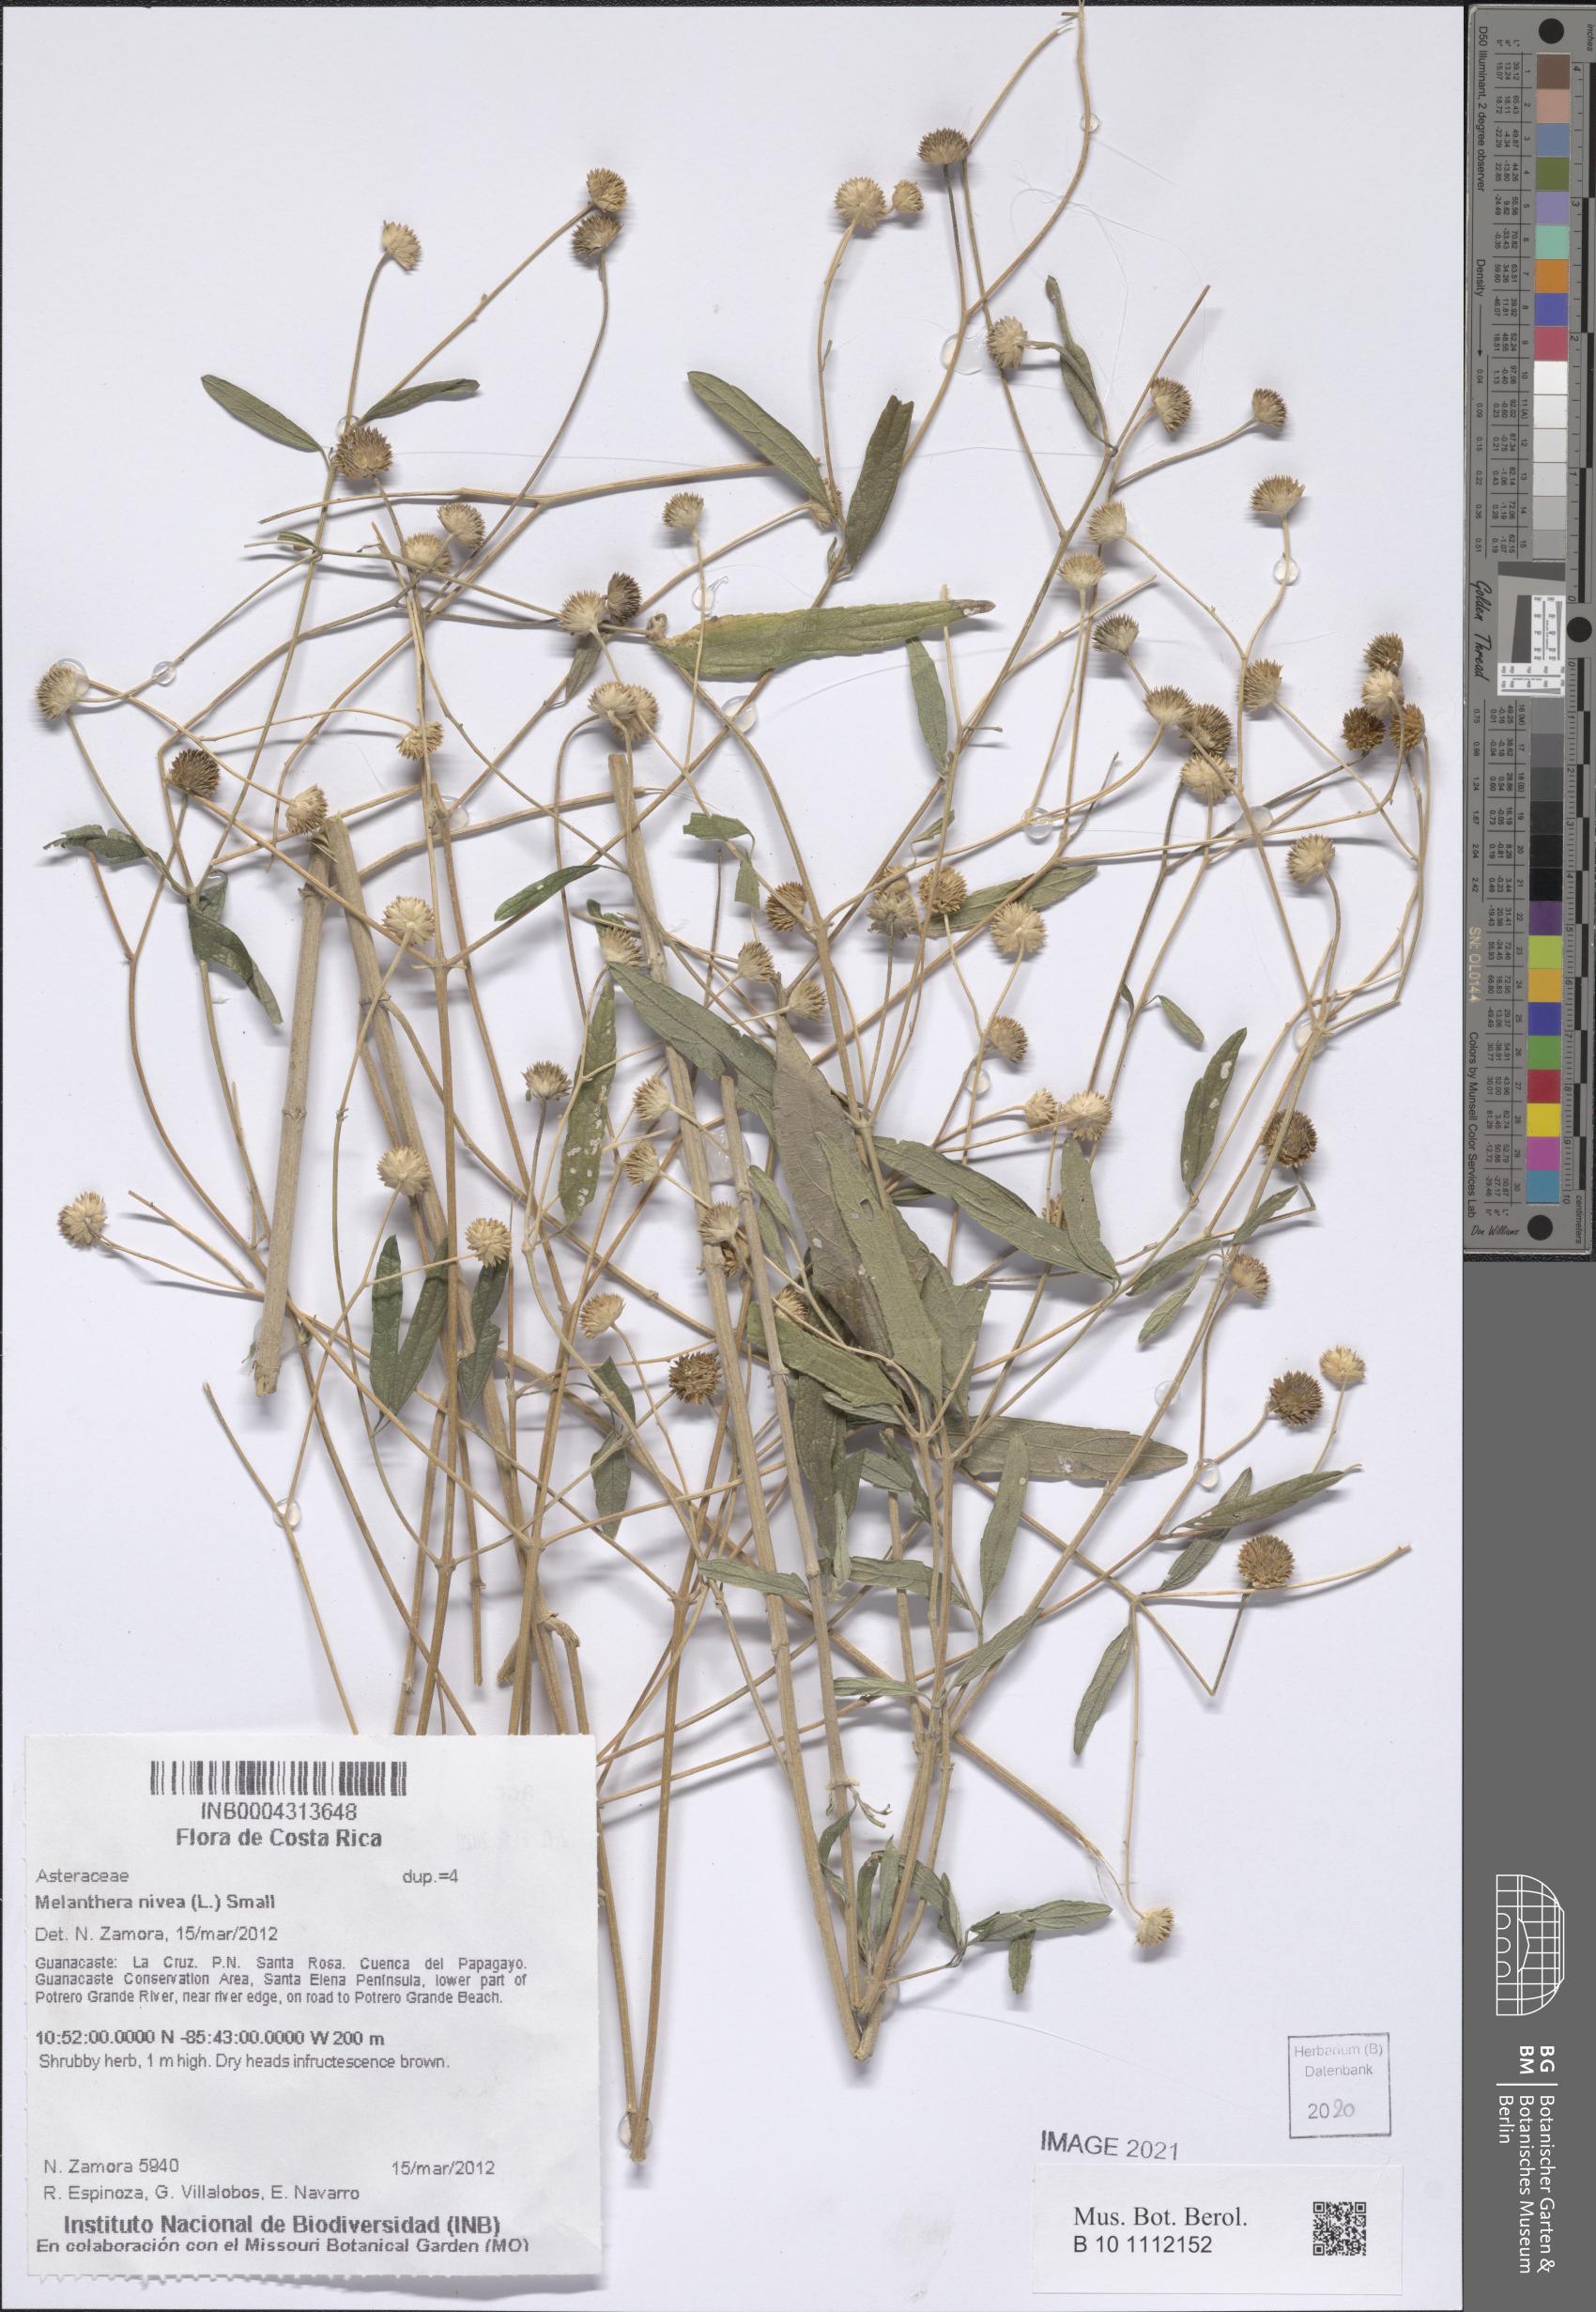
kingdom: Plantae
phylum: Tracheophyta
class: Magnoliopsida
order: Asterales
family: Asteraceae
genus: Melanthera
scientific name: Melanthera nivea
